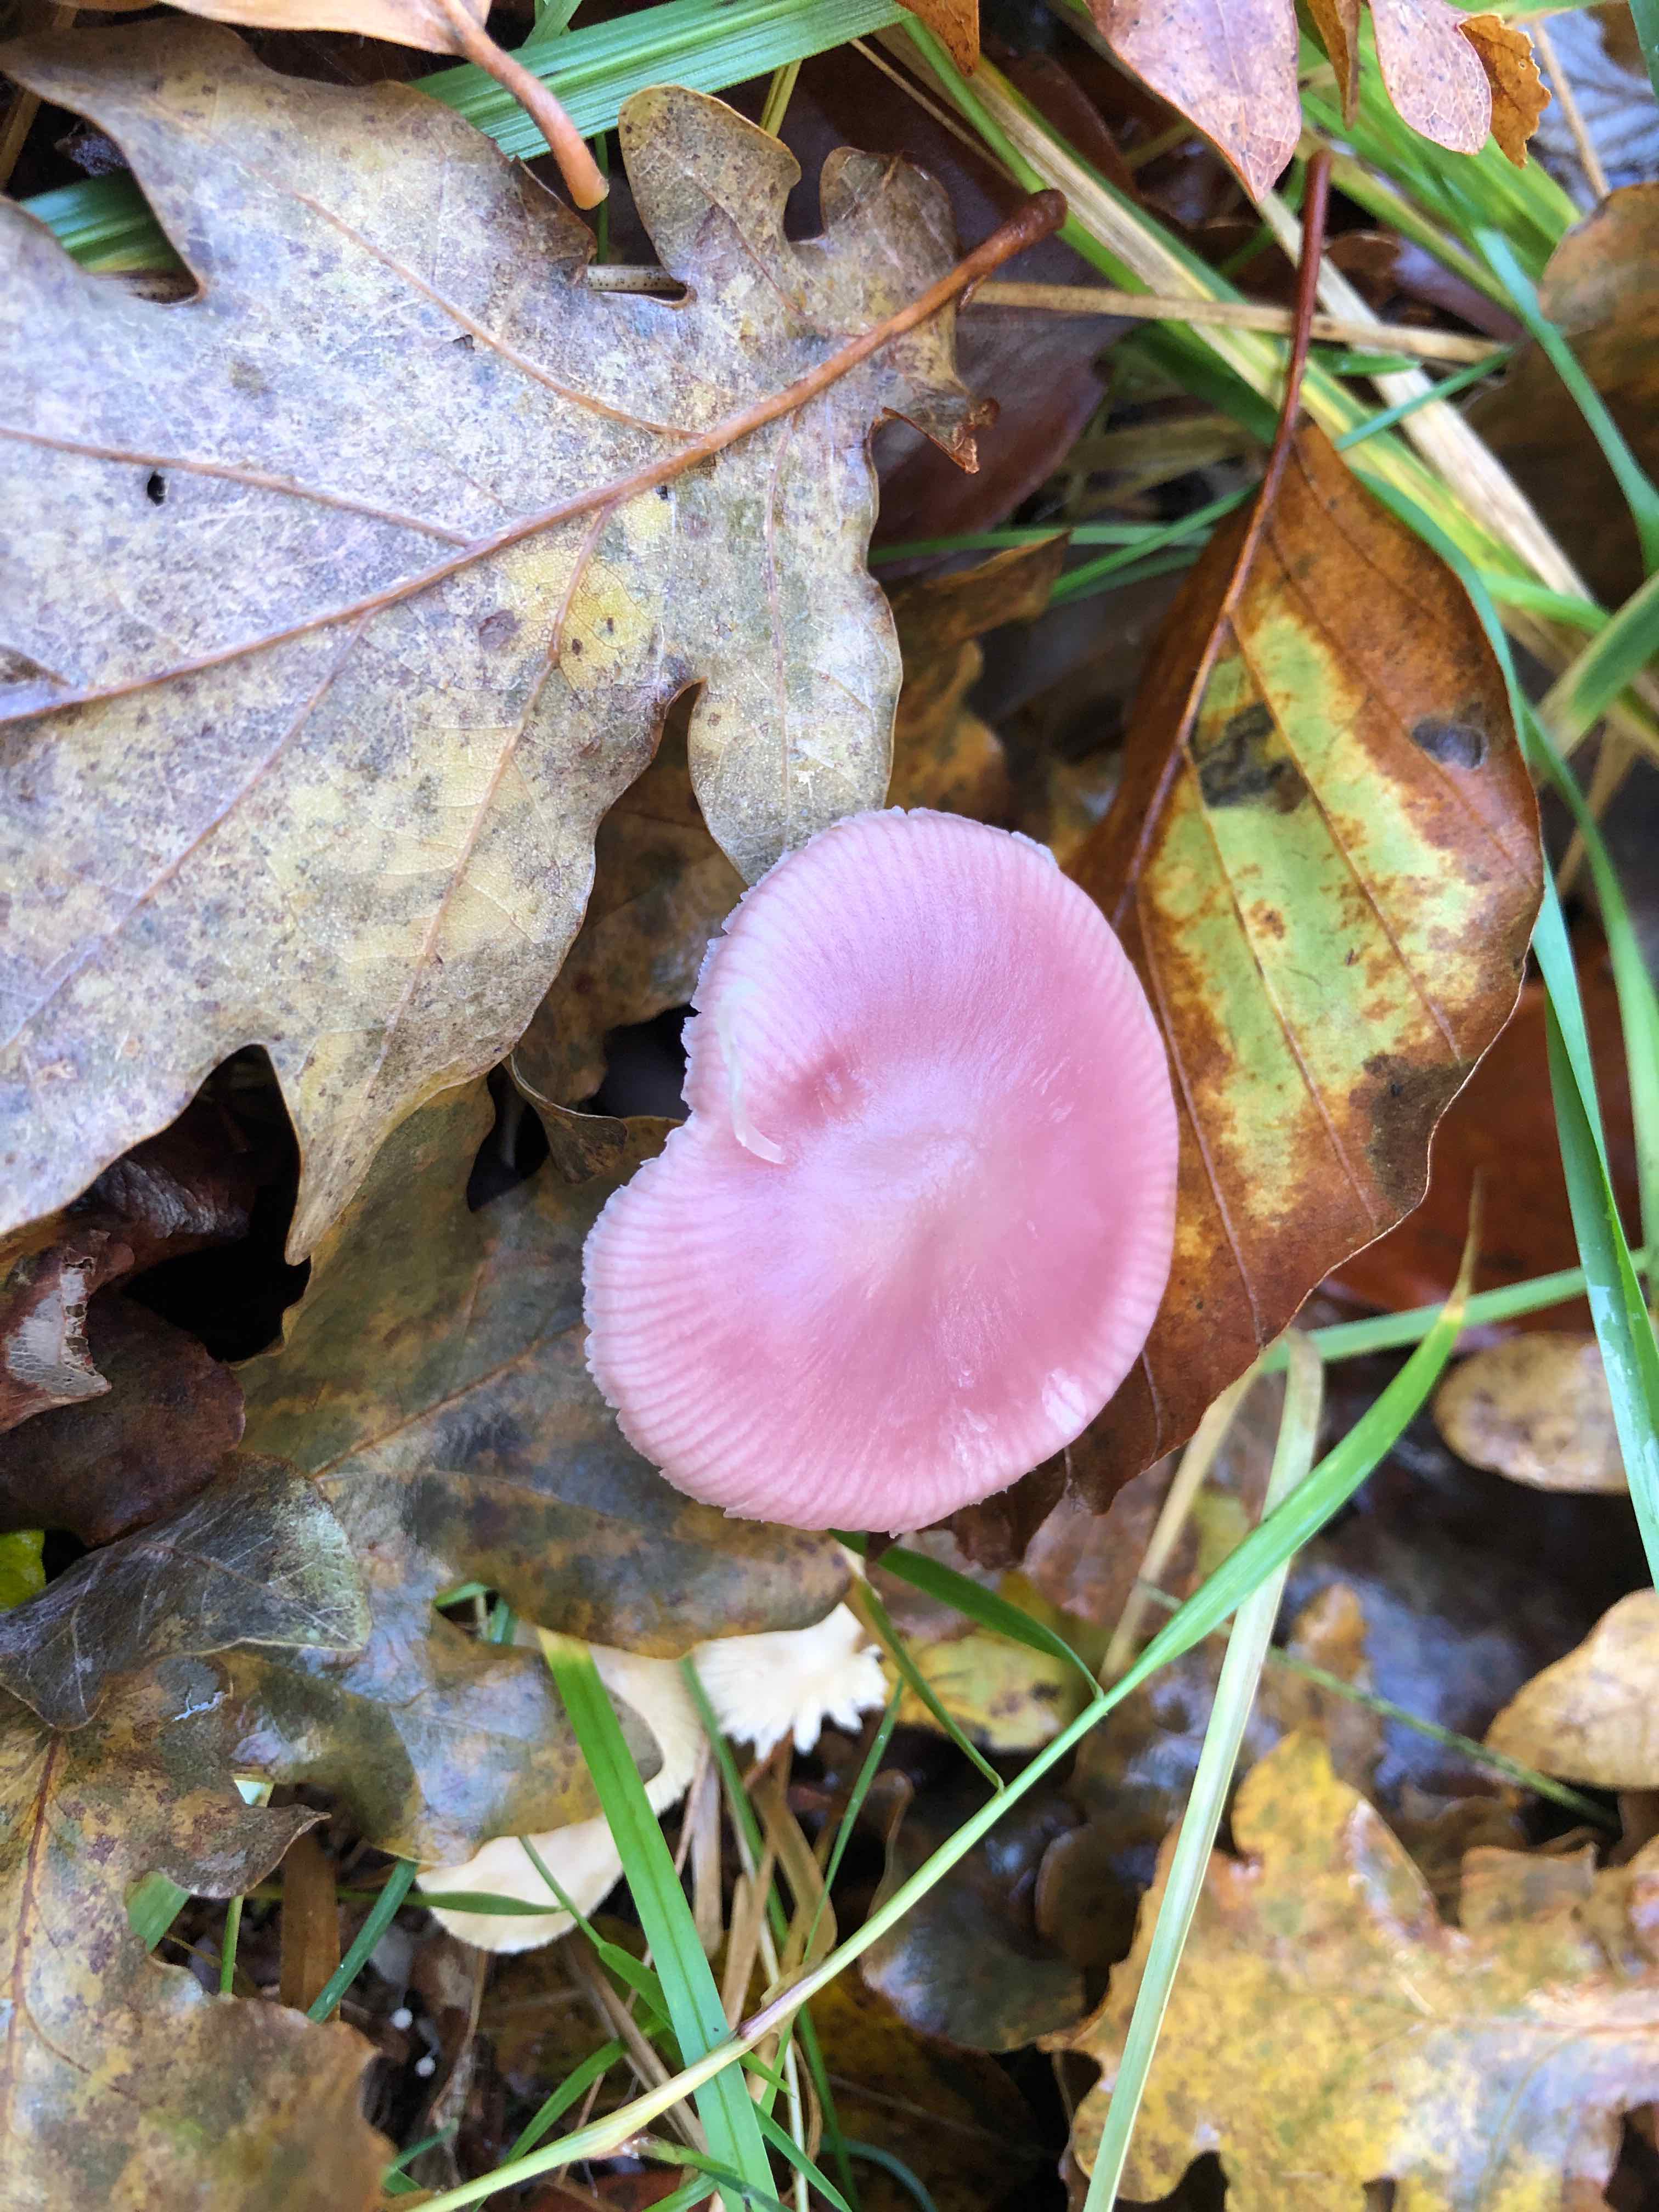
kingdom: Fungi
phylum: Basidiomycota
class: Agaricomycetes
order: Agaricales
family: Mycenaceae
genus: Mycena
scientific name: Mycena rosea
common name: rosa huesvamp
